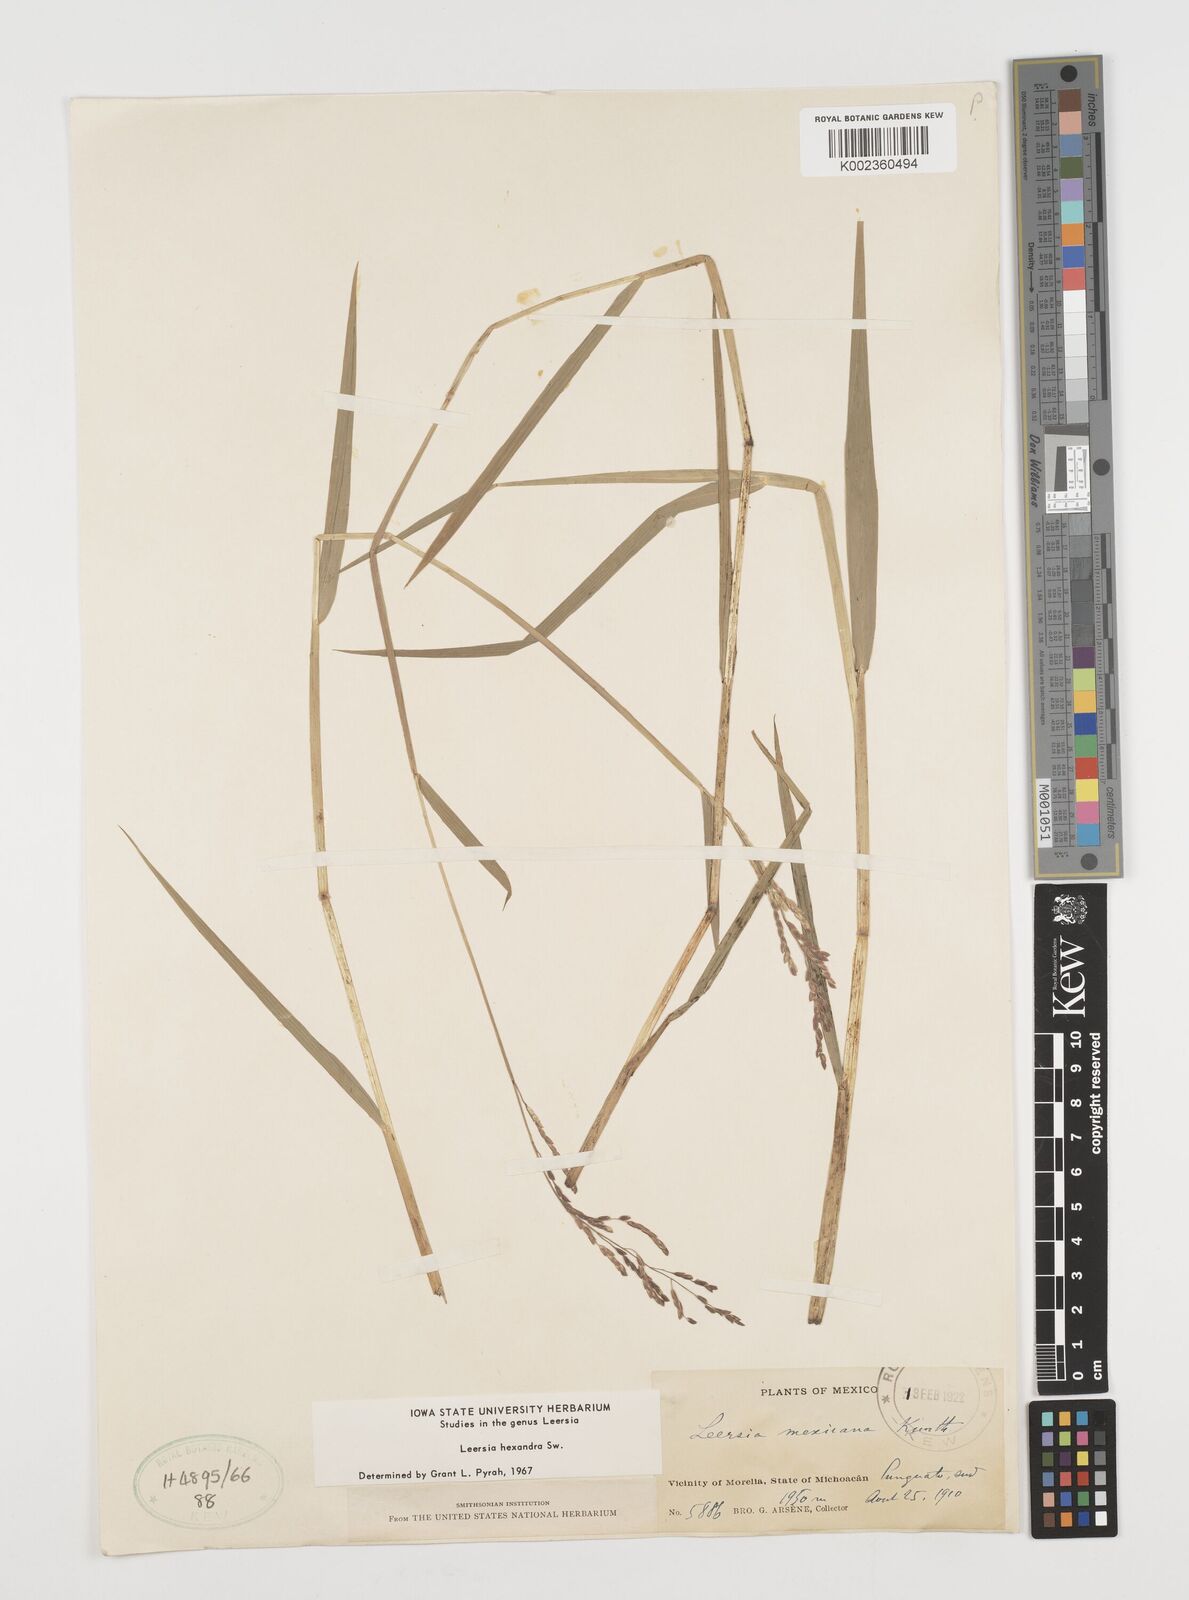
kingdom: Plantae
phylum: Tracheophyta
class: Liliopsida
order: Poales
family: Poaceae
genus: Leersia
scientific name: Leersia hexandra
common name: Southern cut grass
